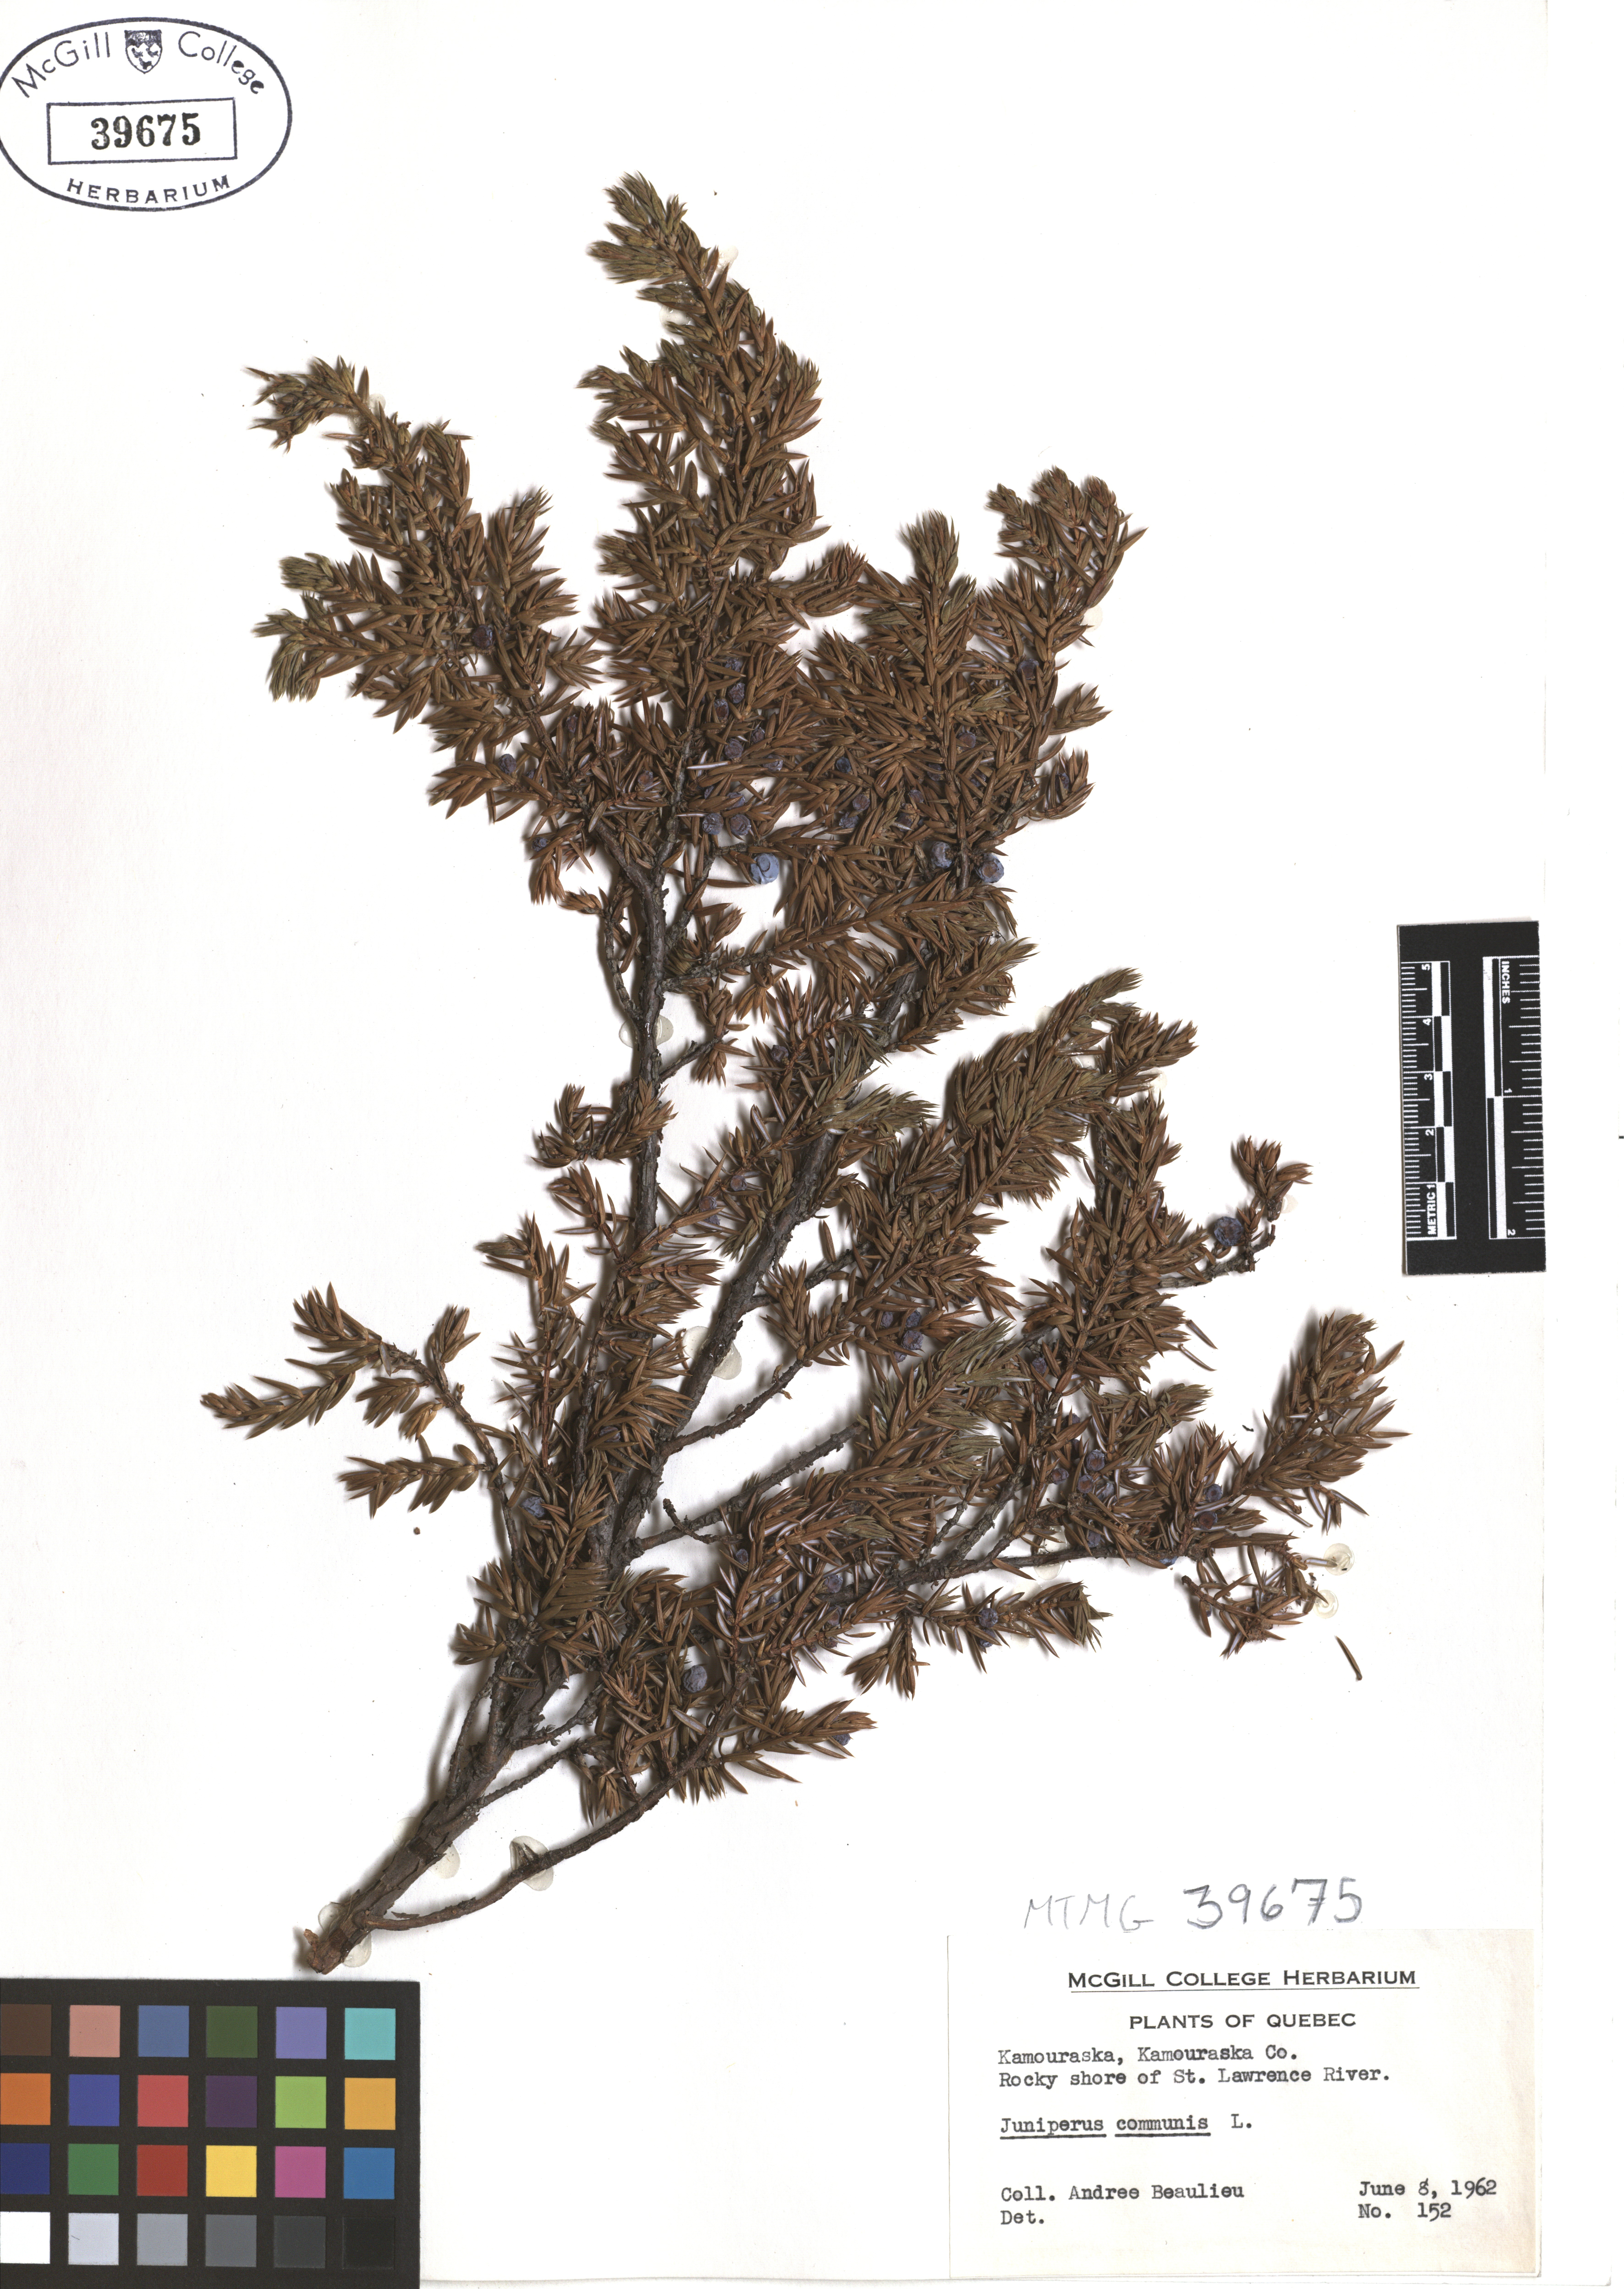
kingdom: Plantae
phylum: Tracheophyta
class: Pinopsida
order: Pinales
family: Cupressaceae
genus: Juniperus
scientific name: Juniperus communis
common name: Common juniper
